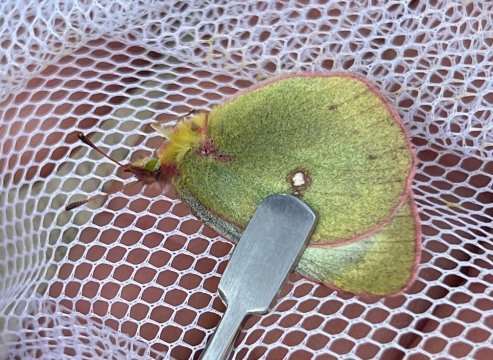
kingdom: Animalia
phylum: Arthropoda
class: Insecta
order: Lepidoptera
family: Pieridae
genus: Colias
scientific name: Colias philodice
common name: Clouded Sulphur
